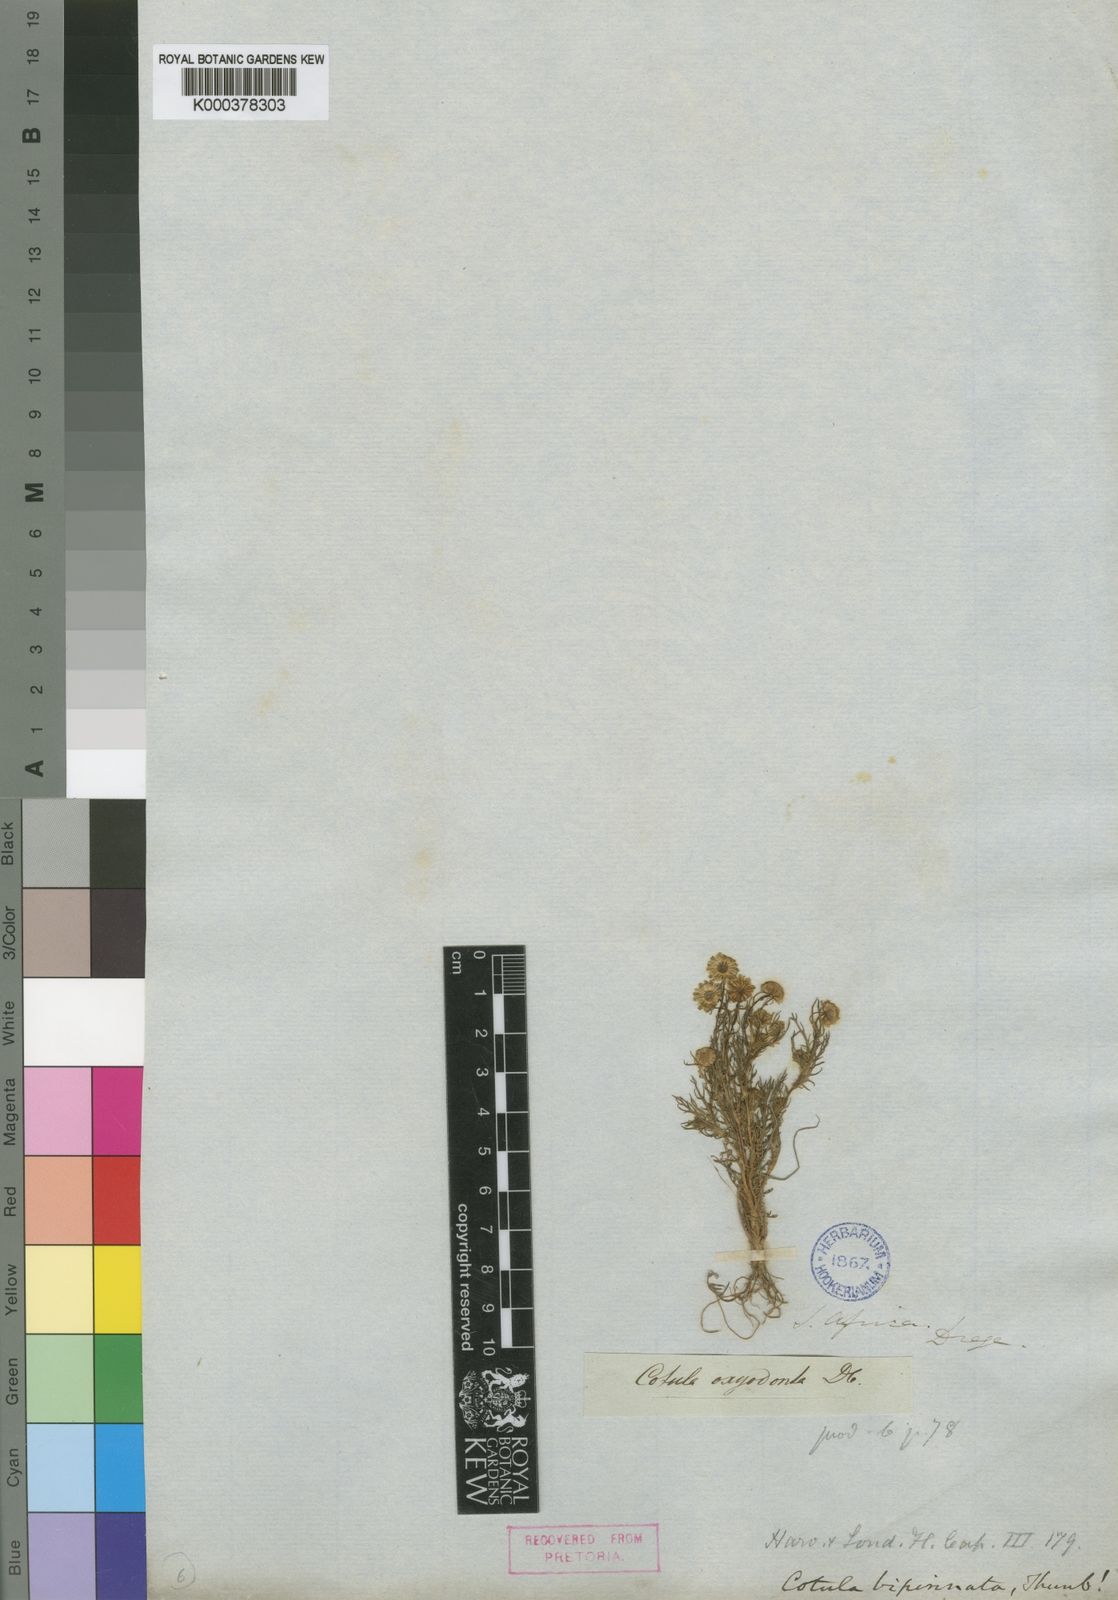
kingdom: Plantae
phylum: Tracheophyta
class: Magnoliopsida
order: Asterales
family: Asteraceae
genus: Cotula
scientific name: Cotula bipinnata
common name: Ferny buttonweed
